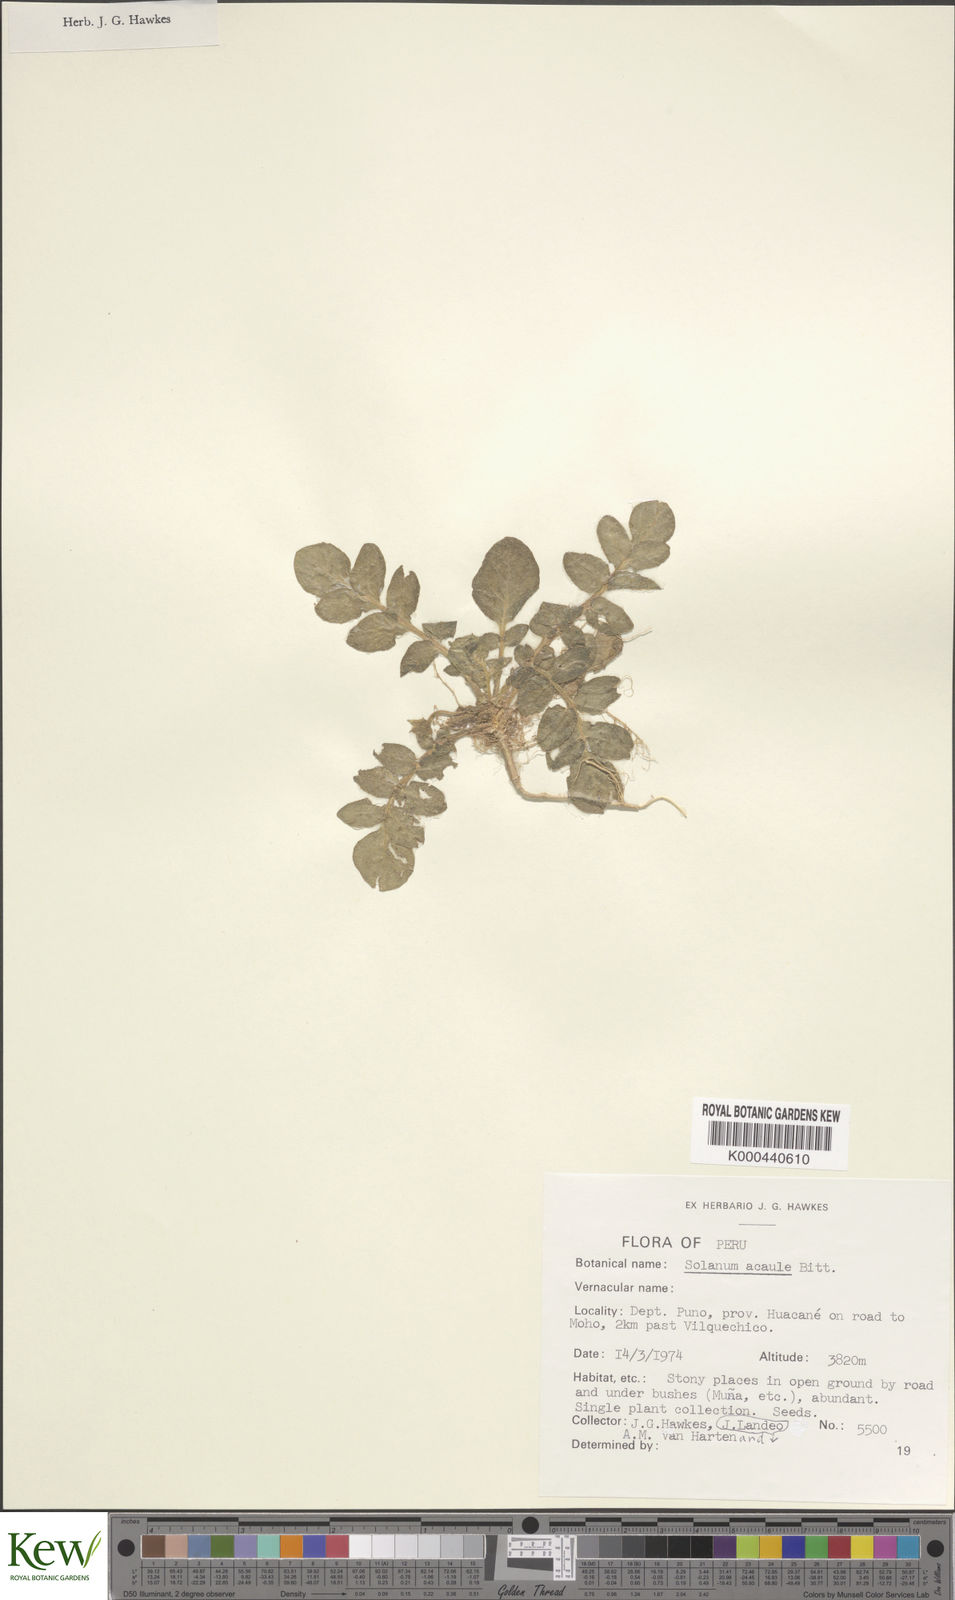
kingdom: Plantae
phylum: Tracheophyta
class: Magnoliopsida
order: Solanales
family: Solanaceae
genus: Solanum
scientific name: Solanum acaule
